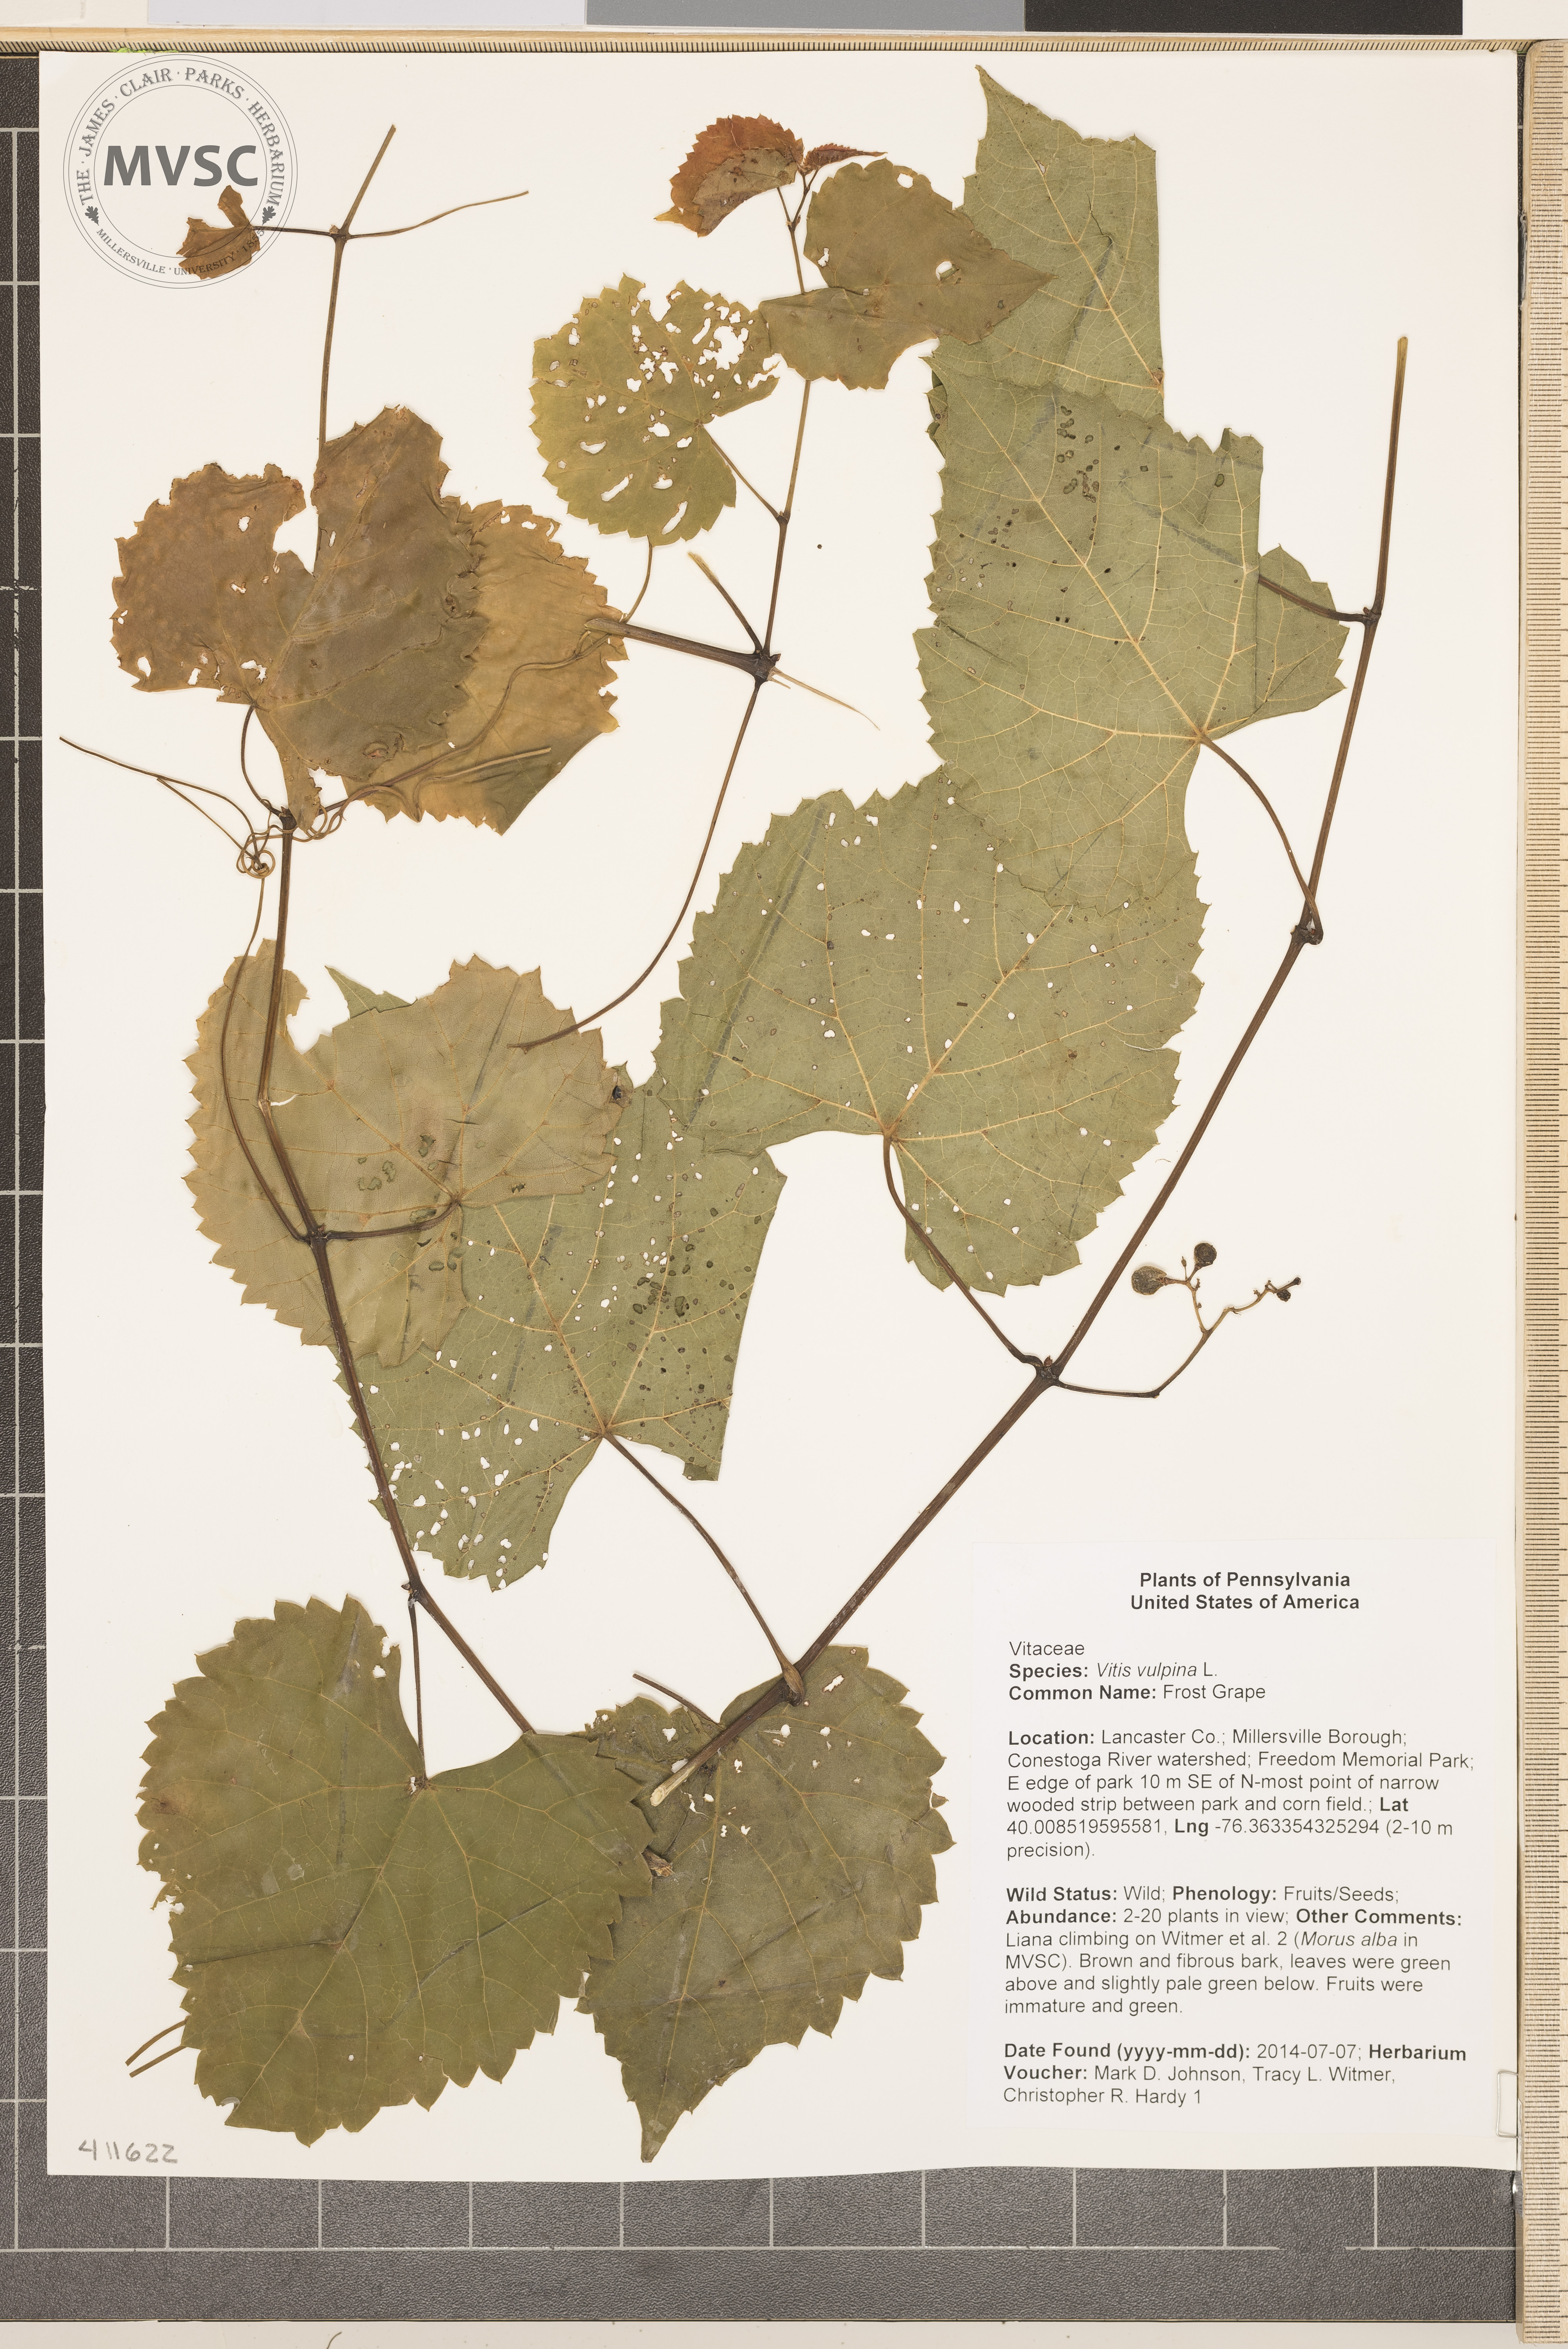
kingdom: Plantae
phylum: Tracheophyta
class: Magnoliopsida
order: Vitales
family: Vitaceae
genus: Vitis
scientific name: Vitis vulpina
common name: Frost Grape
